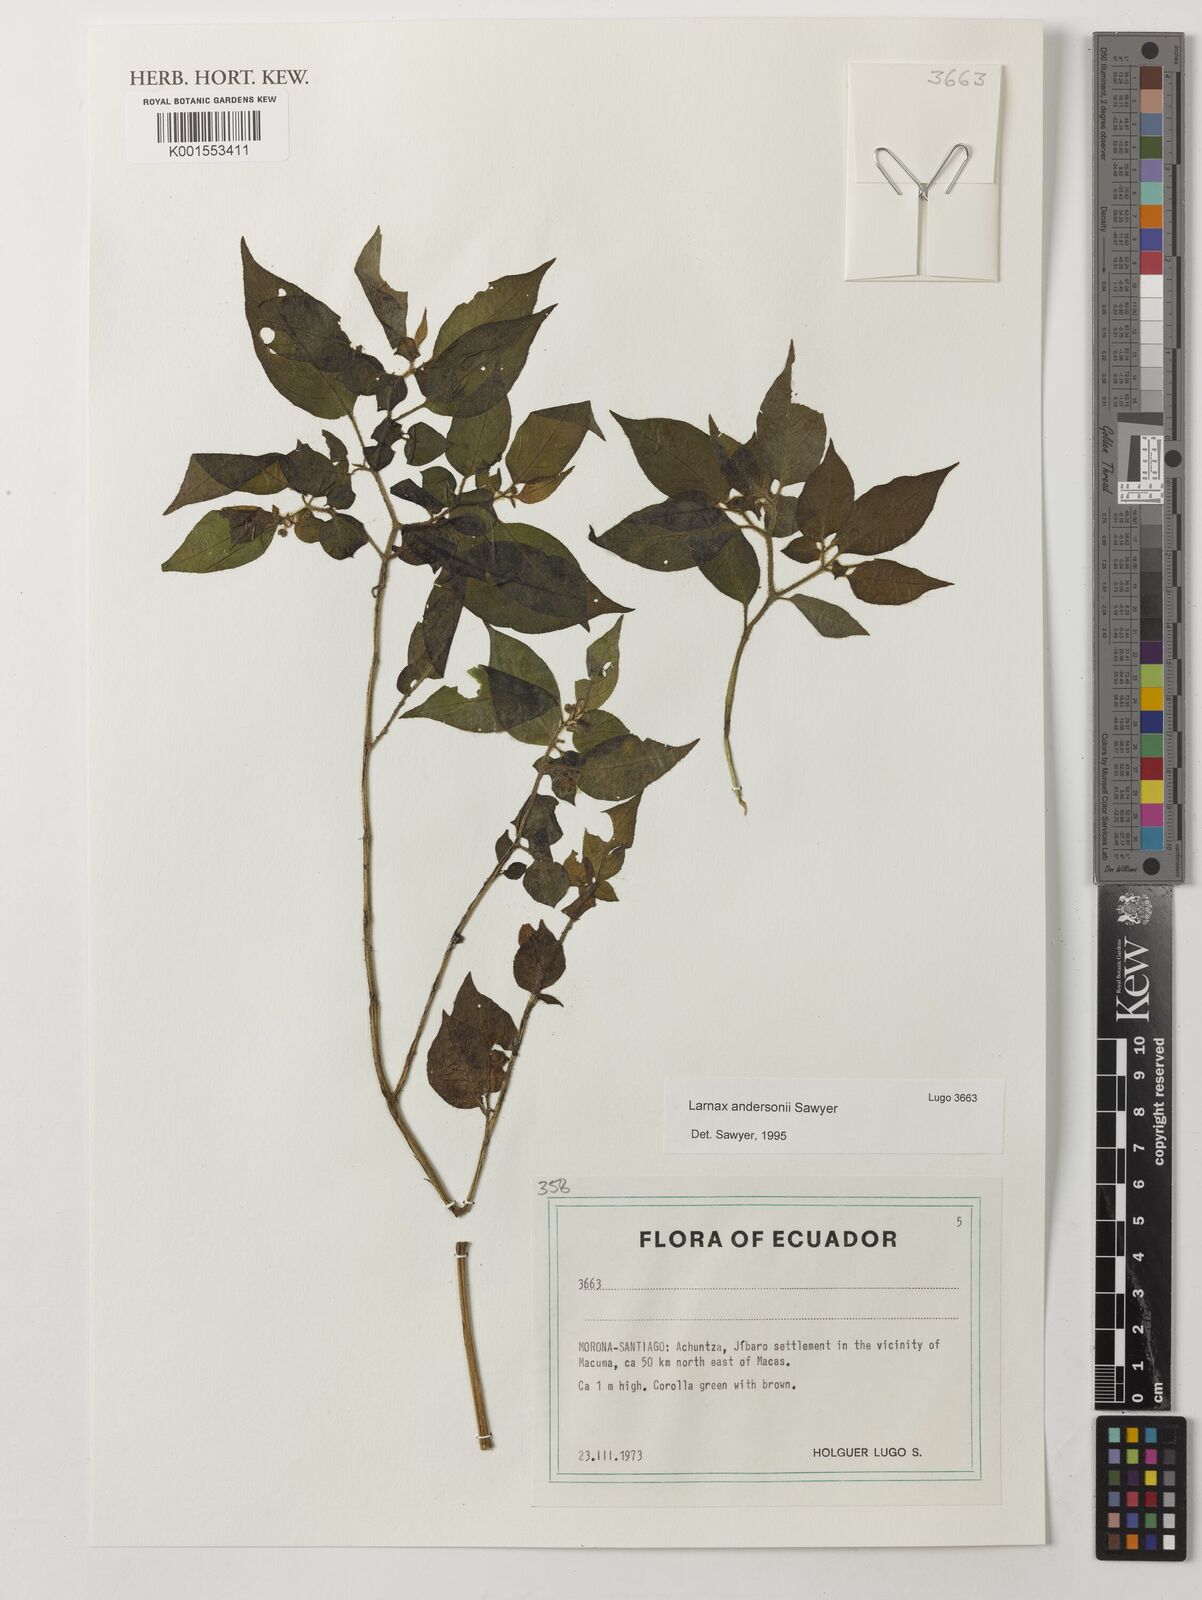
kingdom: Plantae
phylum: Tracheophyta
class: Magnoliopsida
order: Solanales
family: Solanaceae
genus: Deprea
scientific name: Deprea andersonii
